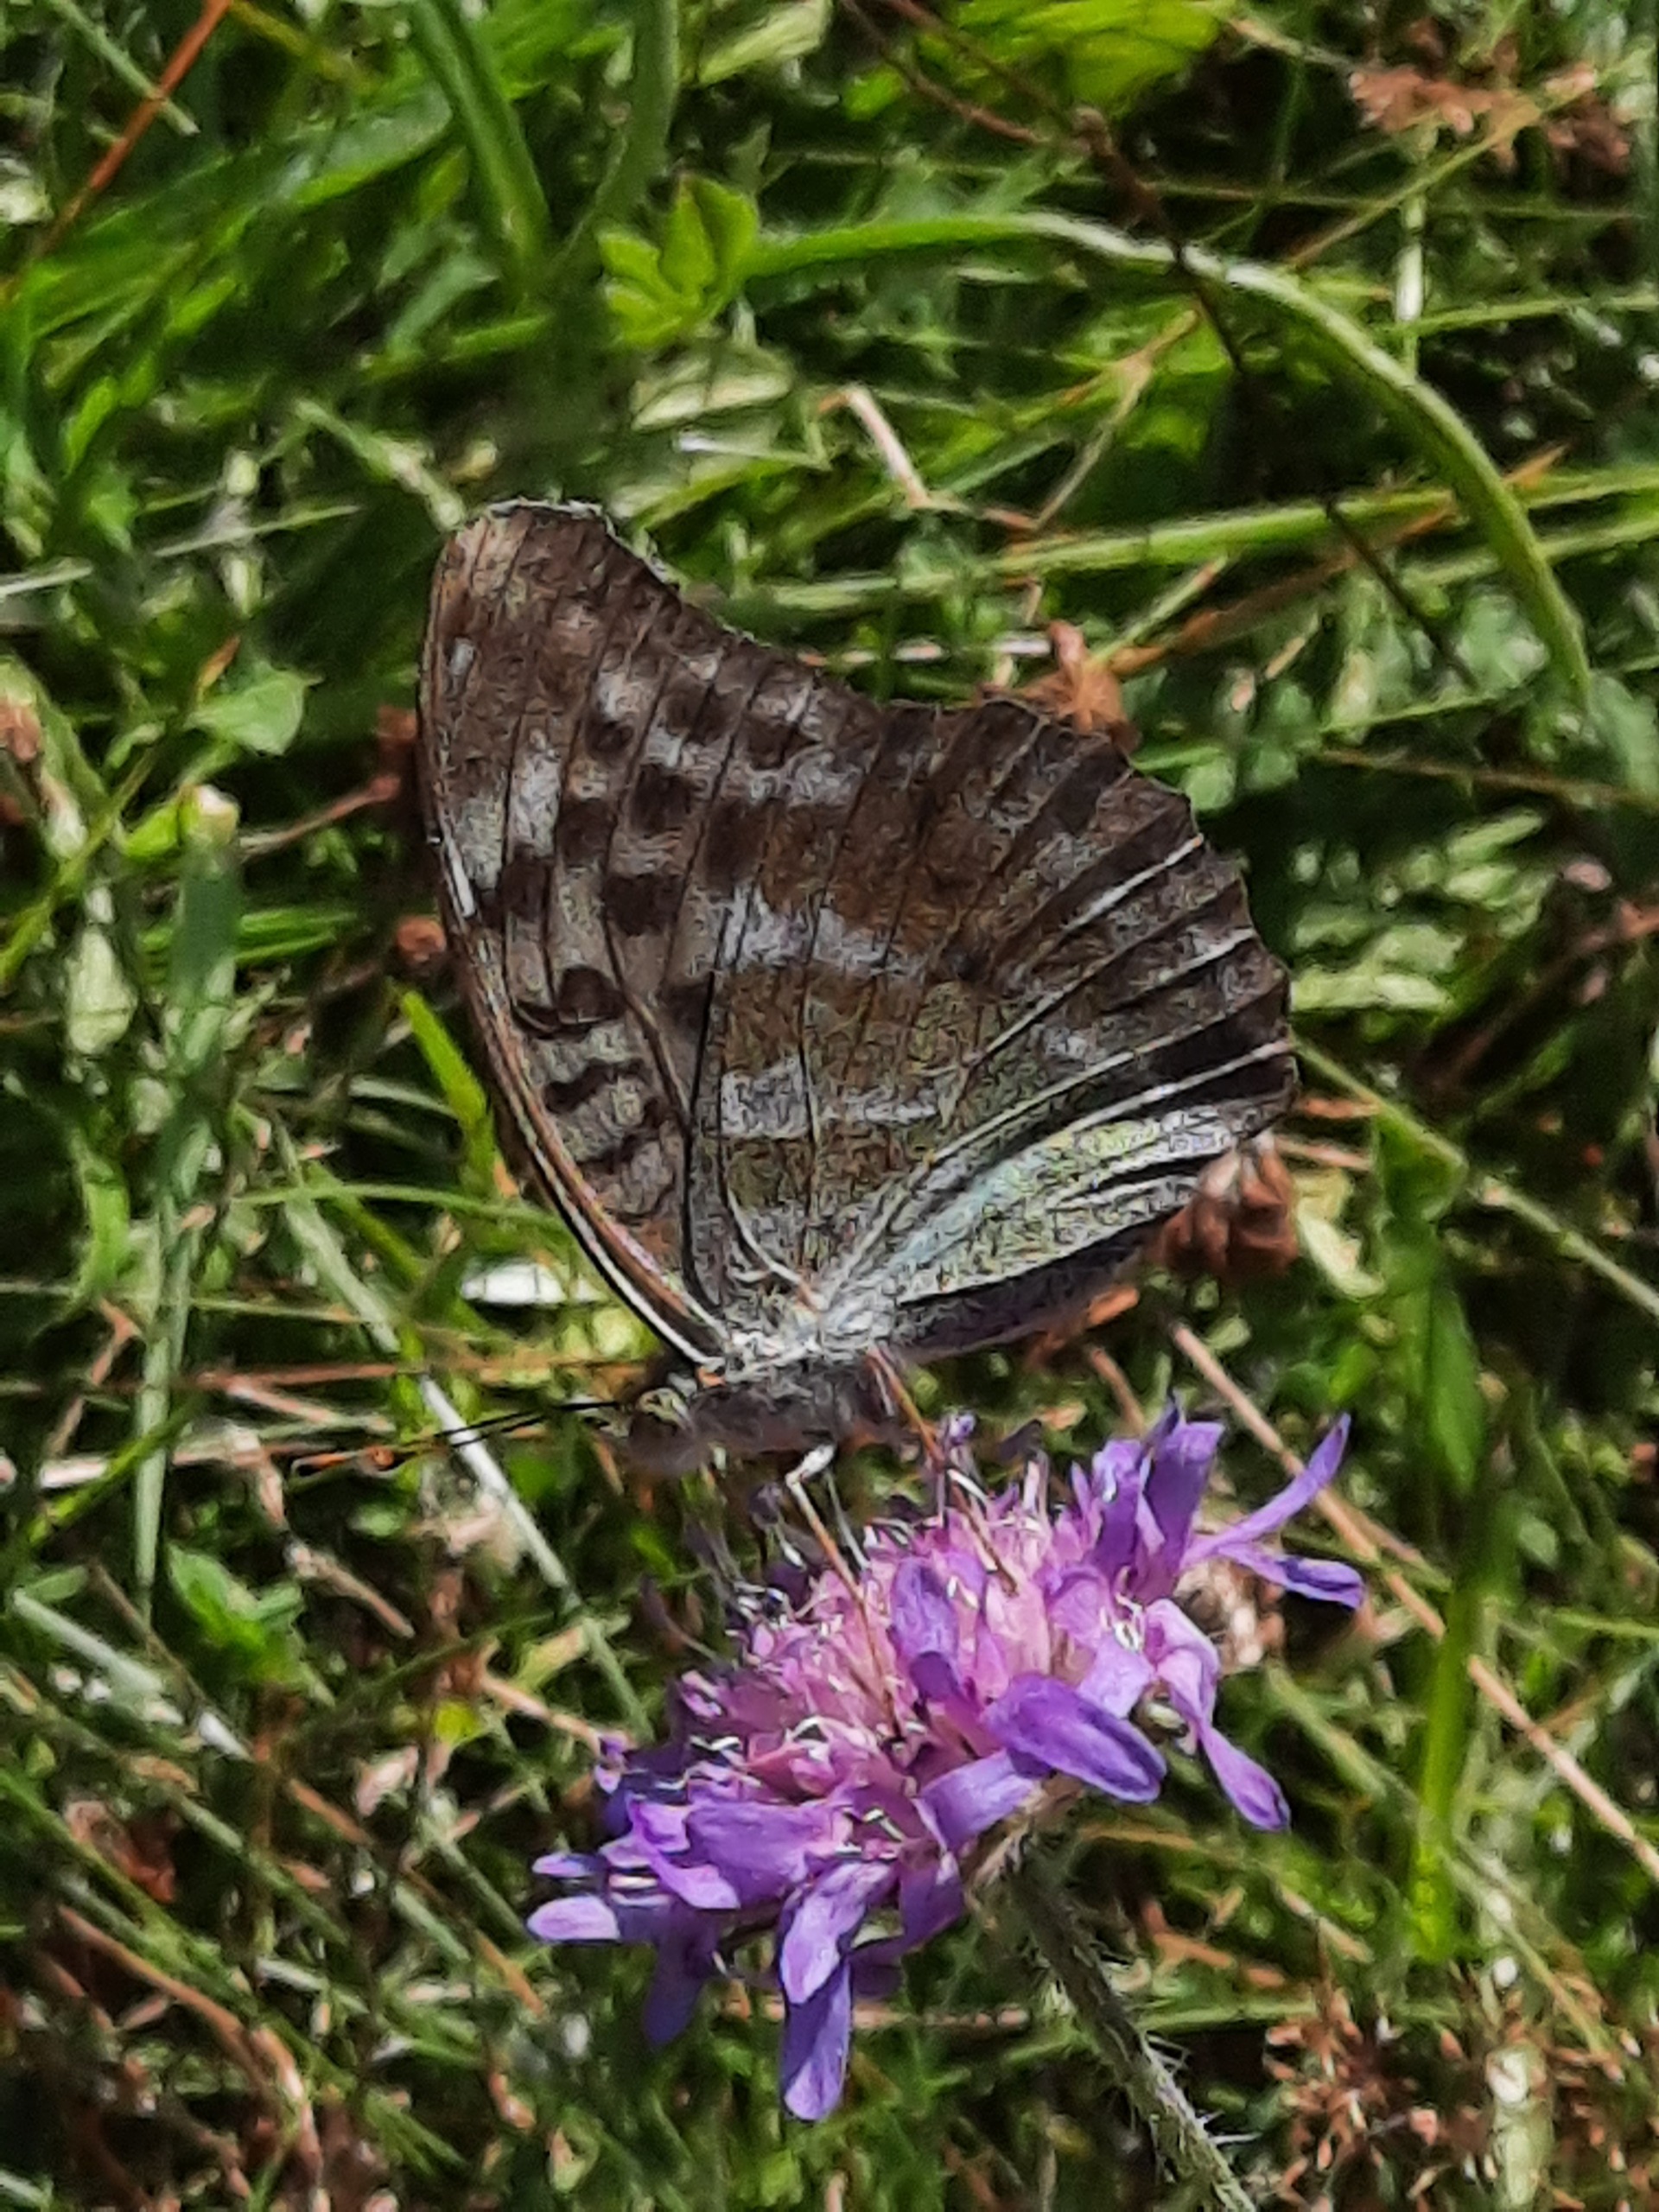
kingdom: Animalia
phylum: Arthropoda
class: Insecta
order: Lepidoptera
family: Nymphalidae
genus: Argynnis
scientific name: Argynnis paphia
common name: Kejserkåbe
